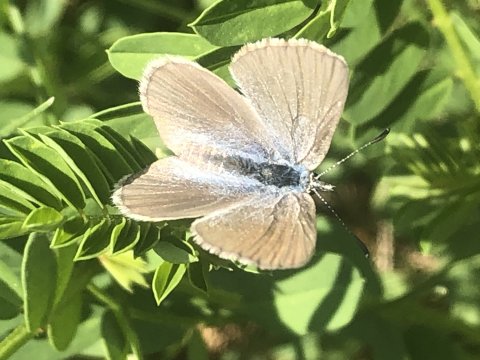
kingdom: Animalia
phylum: Arthropoda
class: Insecta
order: Lepidoptera
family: Lycaenidae
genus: Glaucopsyche
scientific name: Glaucopsyche lygdamus
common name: Silvery Blue
